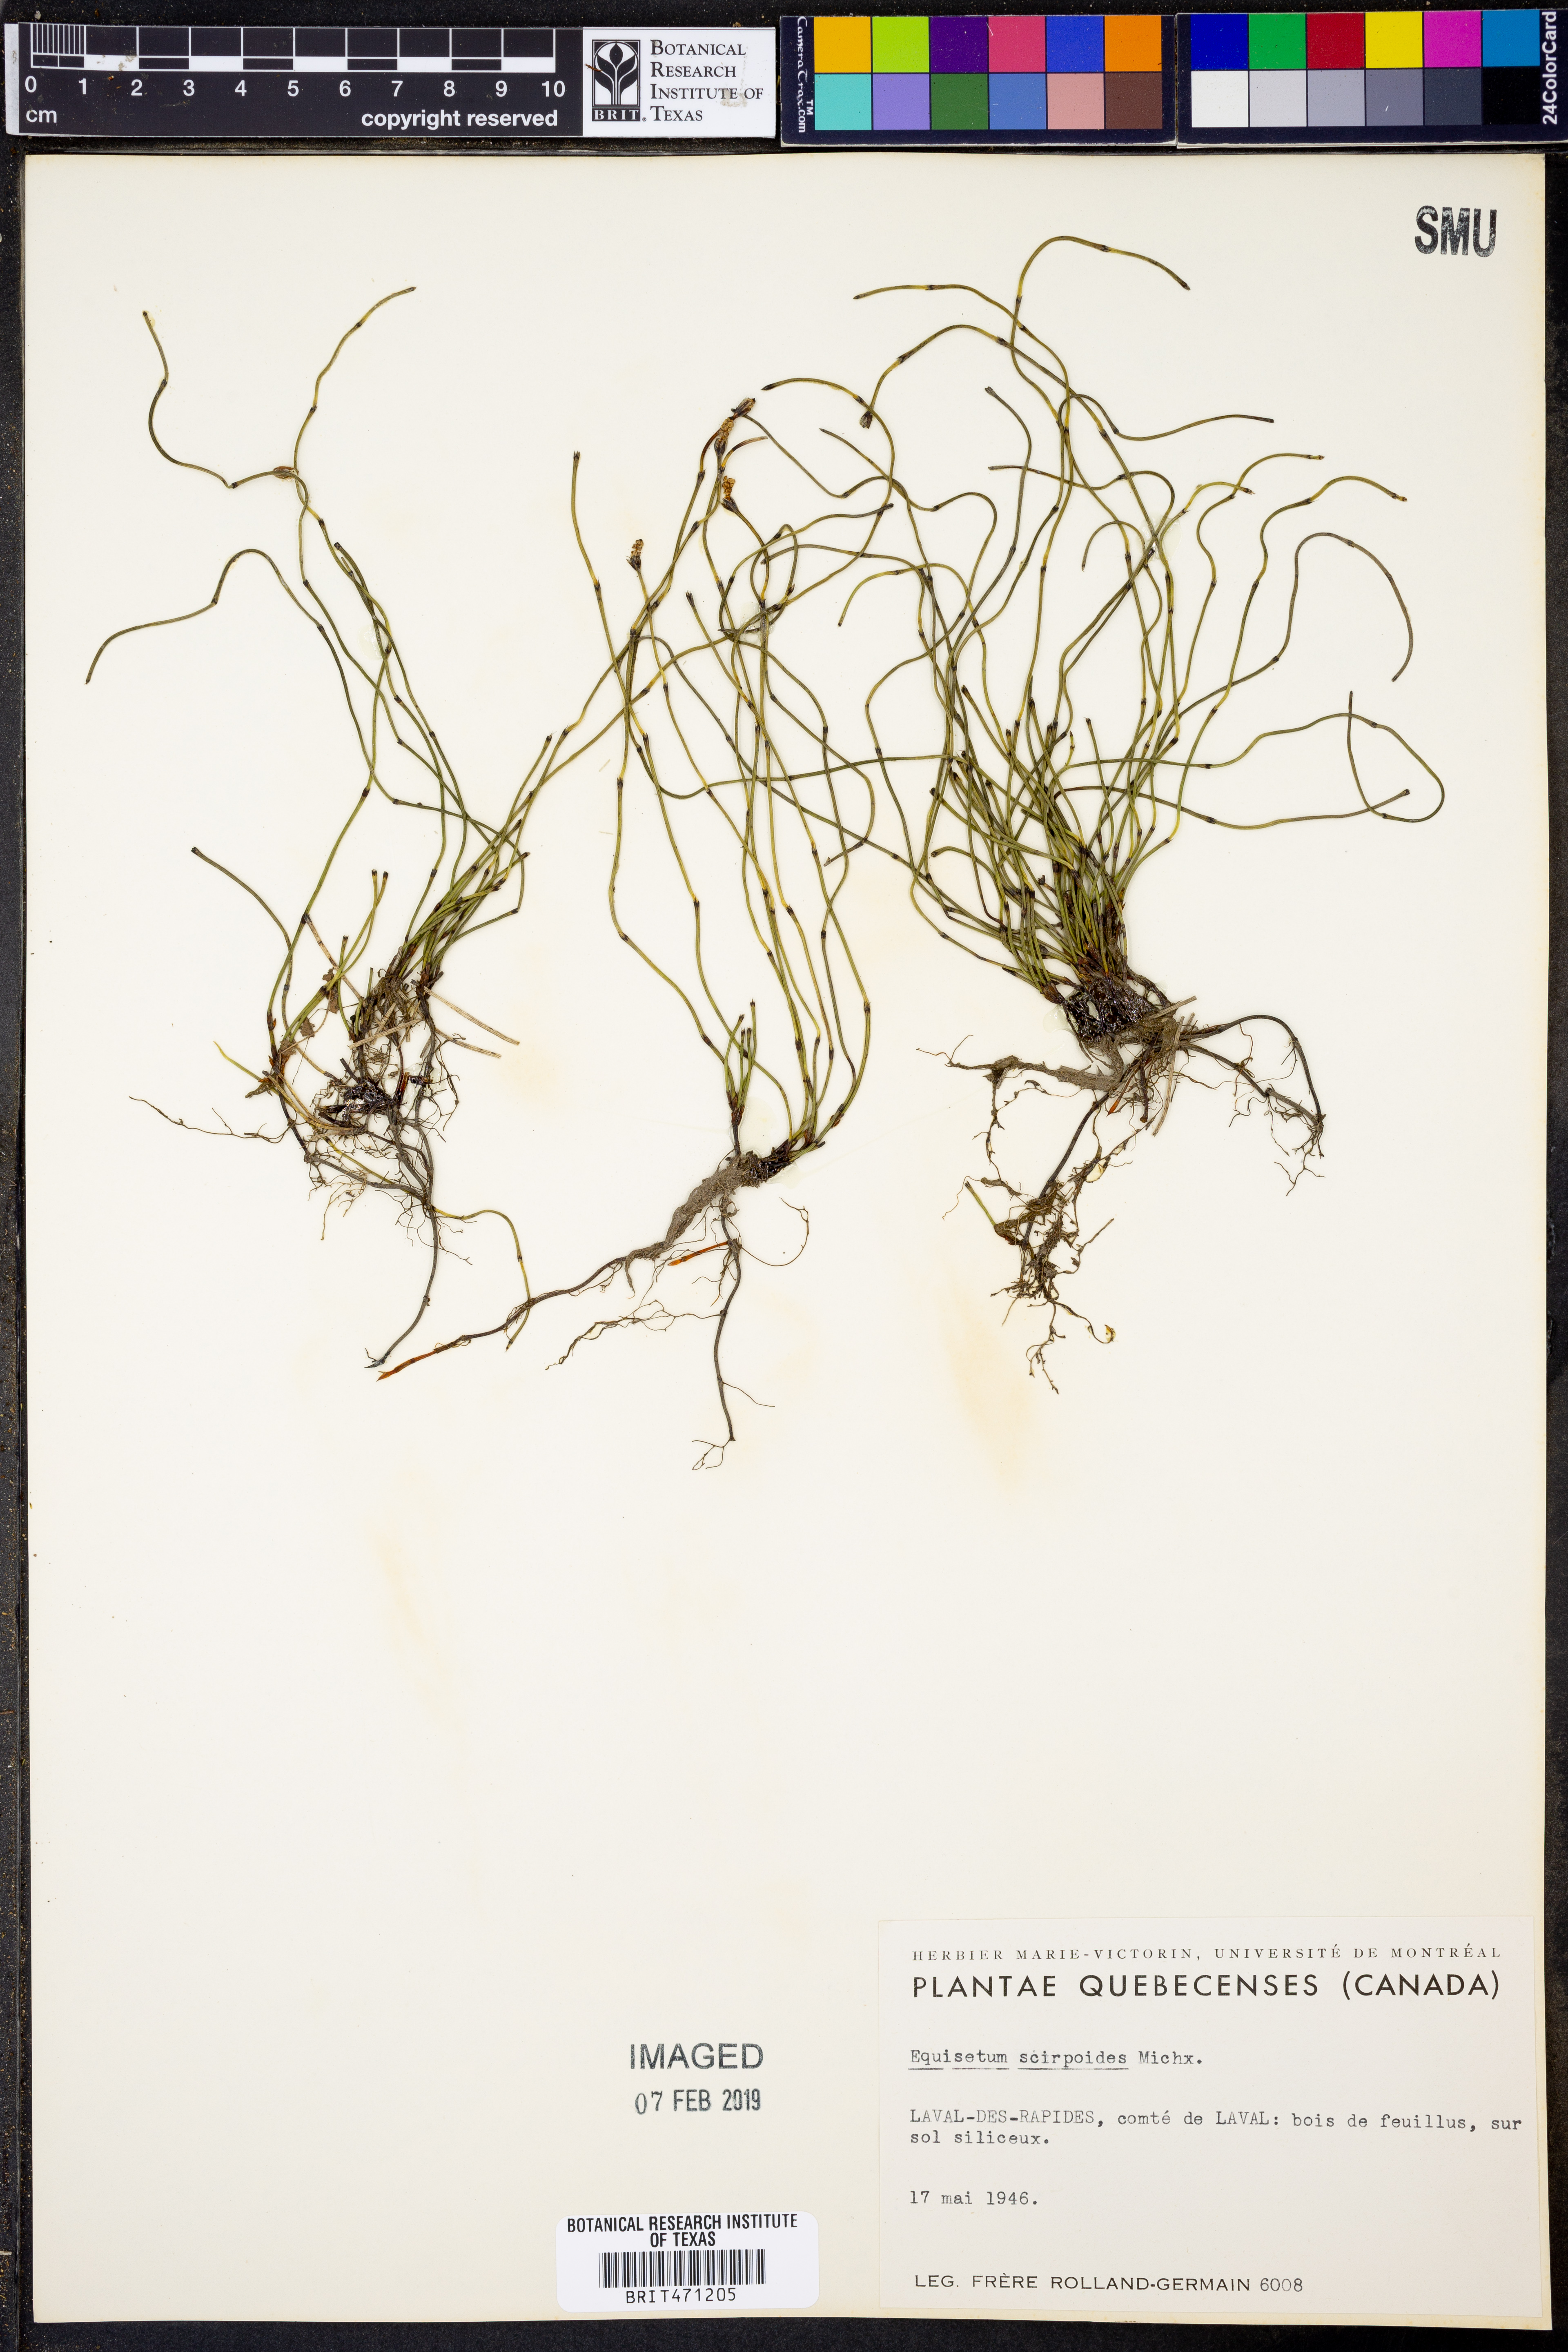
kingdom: Plantae
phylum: Tracheophyta
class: Polypodiopsida
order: Equisetales
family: Equisetaceae
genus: Equisetum
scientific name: Equisetum scirpoides
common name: Delicate horsetail
